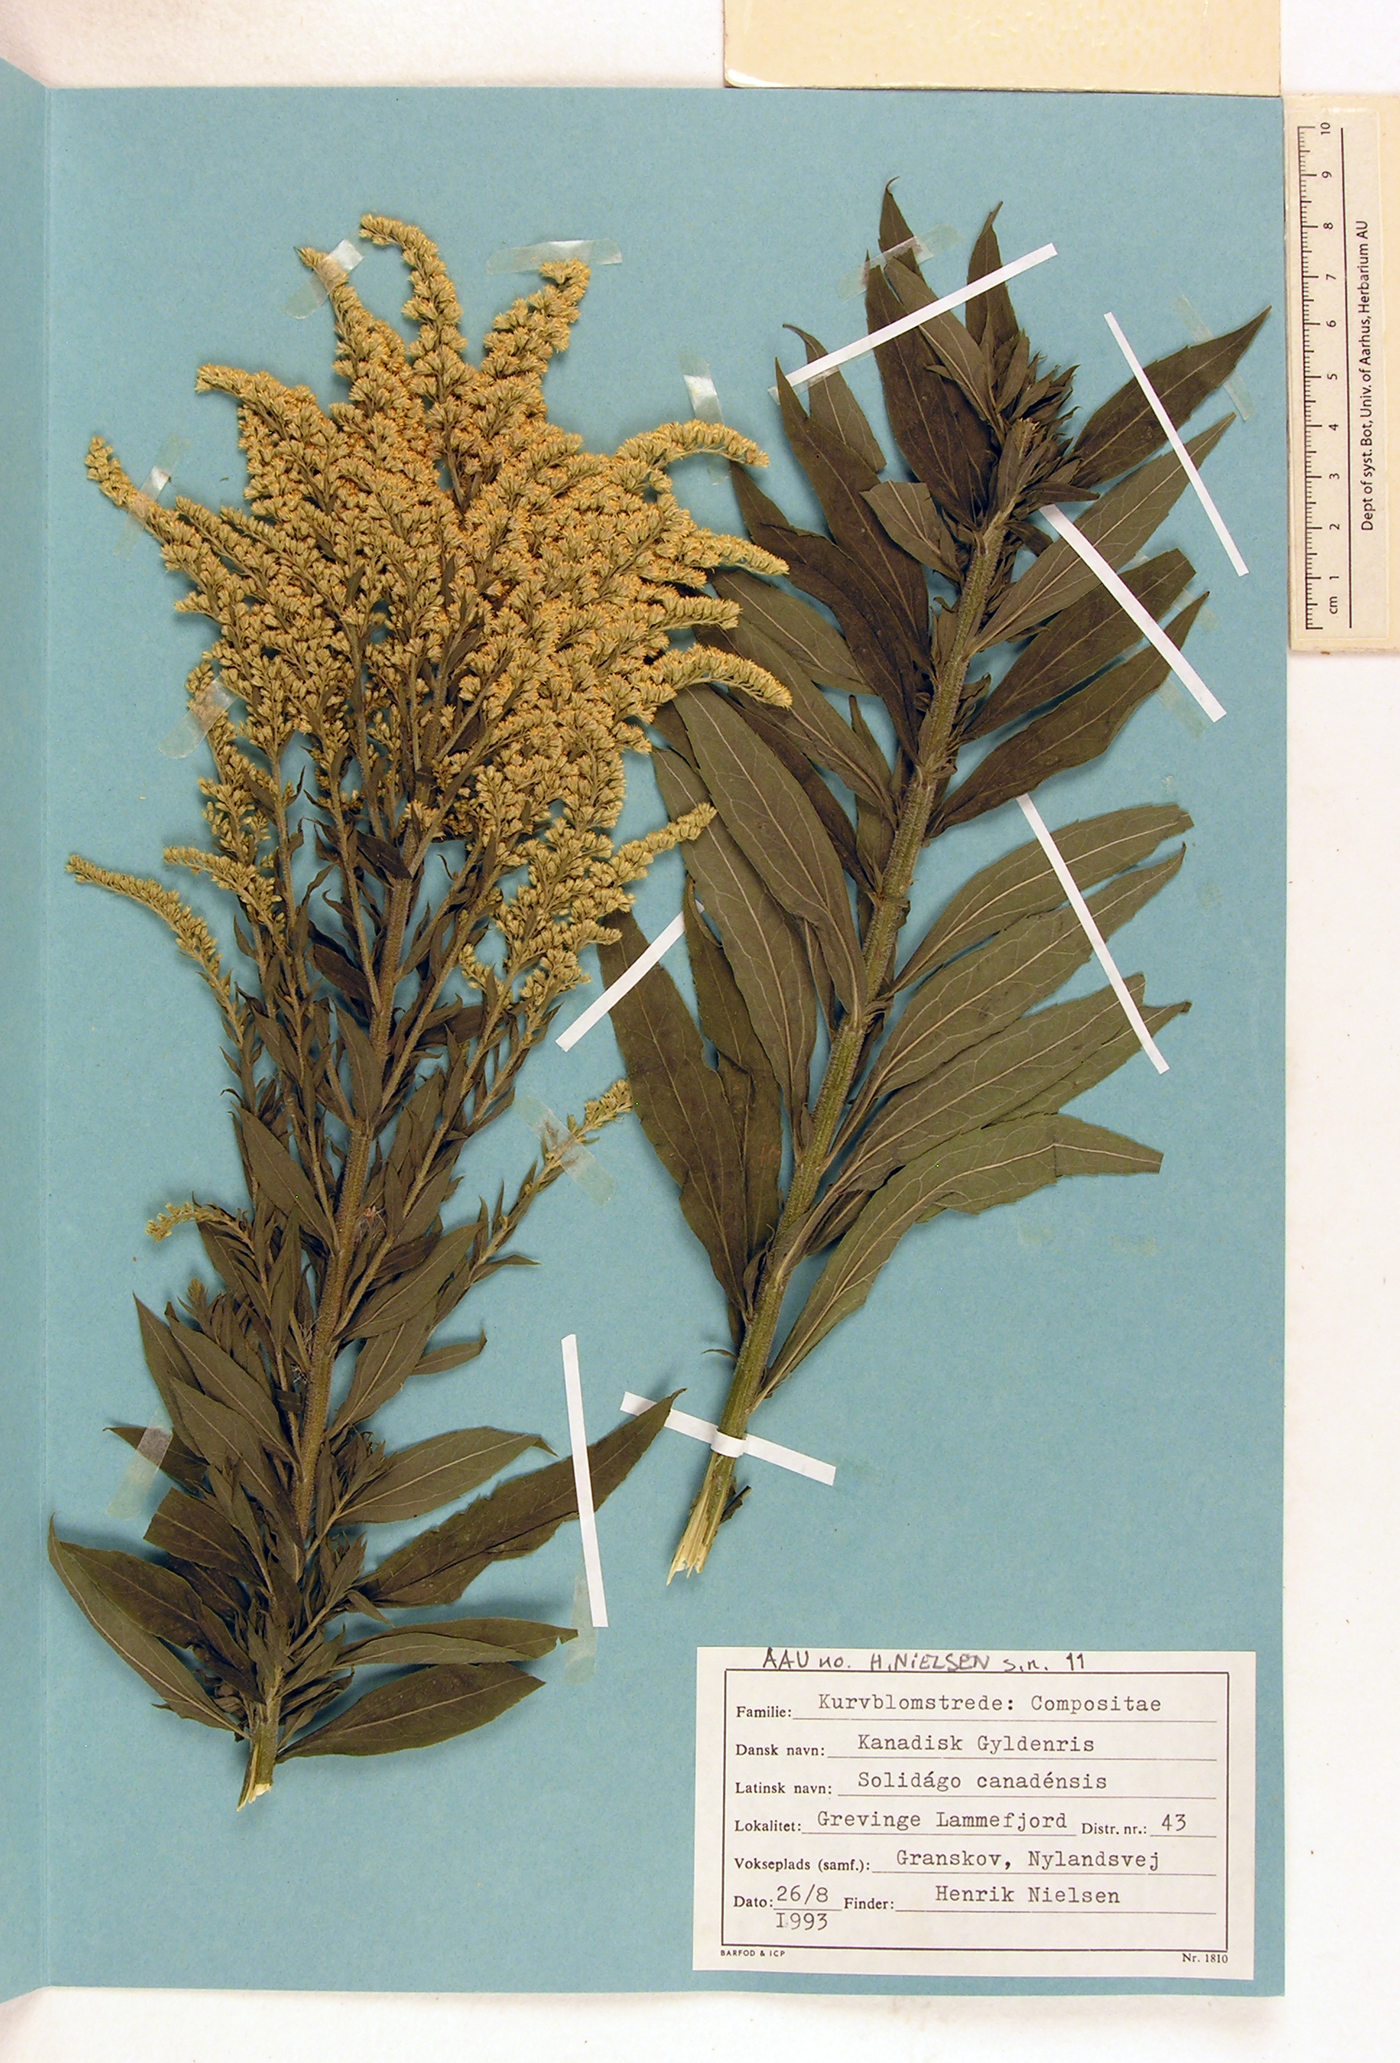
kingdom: Plantae
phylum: Tracheophyta
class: Magnoliopsida
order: Asterales
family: Asteraceae
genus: Solidago
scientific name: Solidago canadensis
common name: Canada goldenrod
